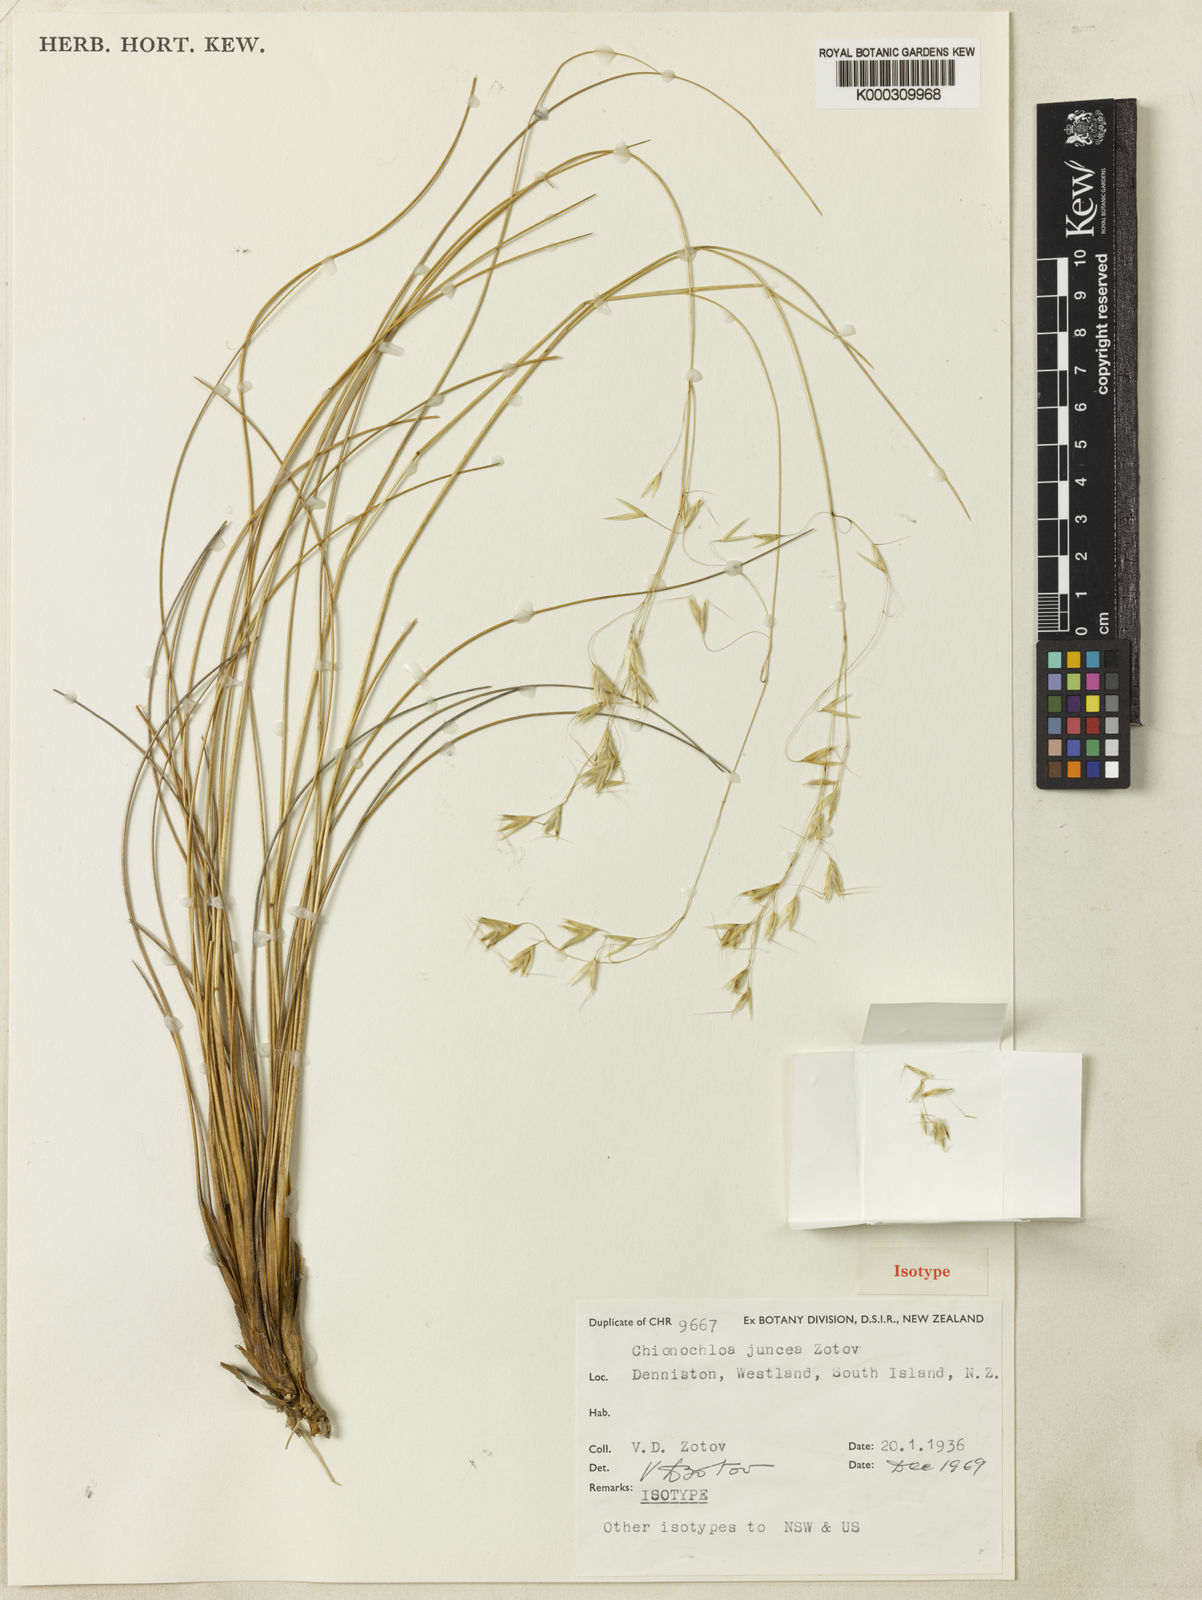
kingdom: Plantae
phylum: Tracheophyta
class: Liliopsida
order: Poales
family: Poaceae
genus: Chionochloa
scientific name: Chionochloa juncea
